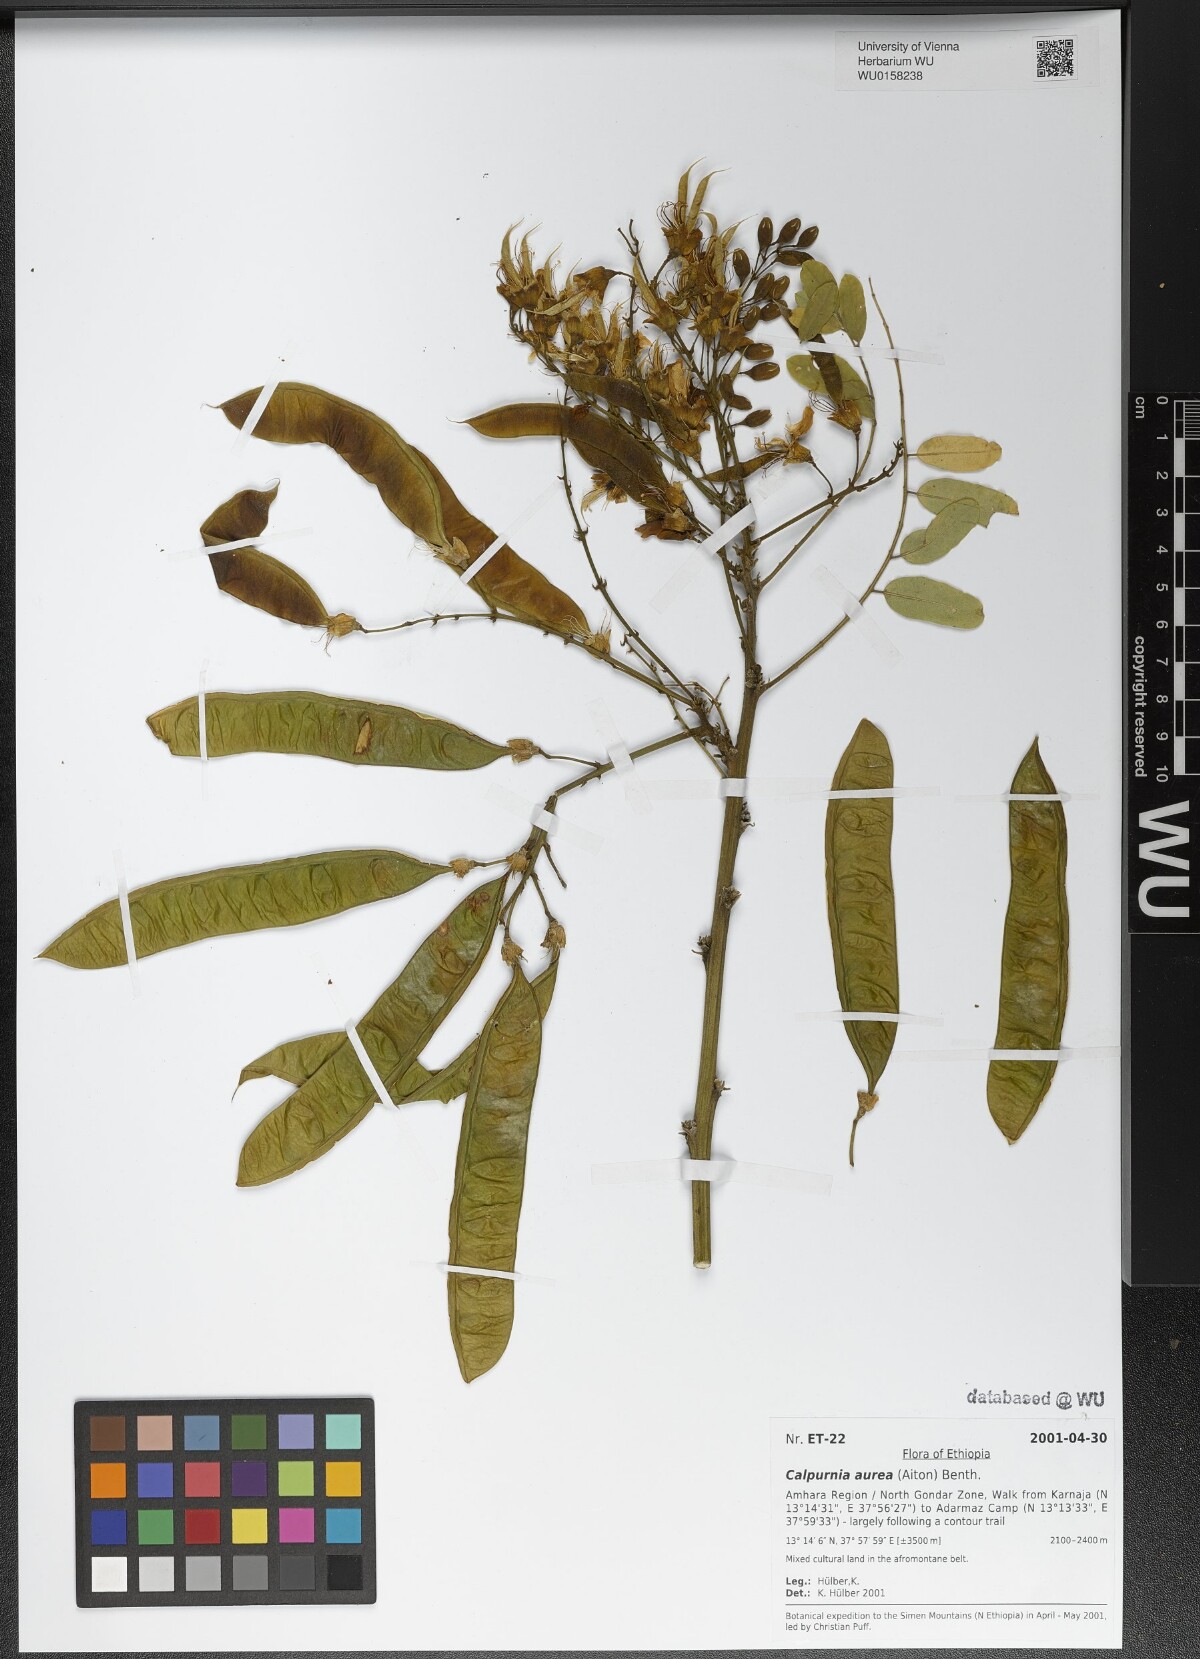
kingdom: Plantae
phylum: Tracheophyta
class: Magnoliopsida
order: Fabales
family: Fabaceae
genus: Calpurnia
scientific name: Calpurnia aurea
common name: Wild laburnum
